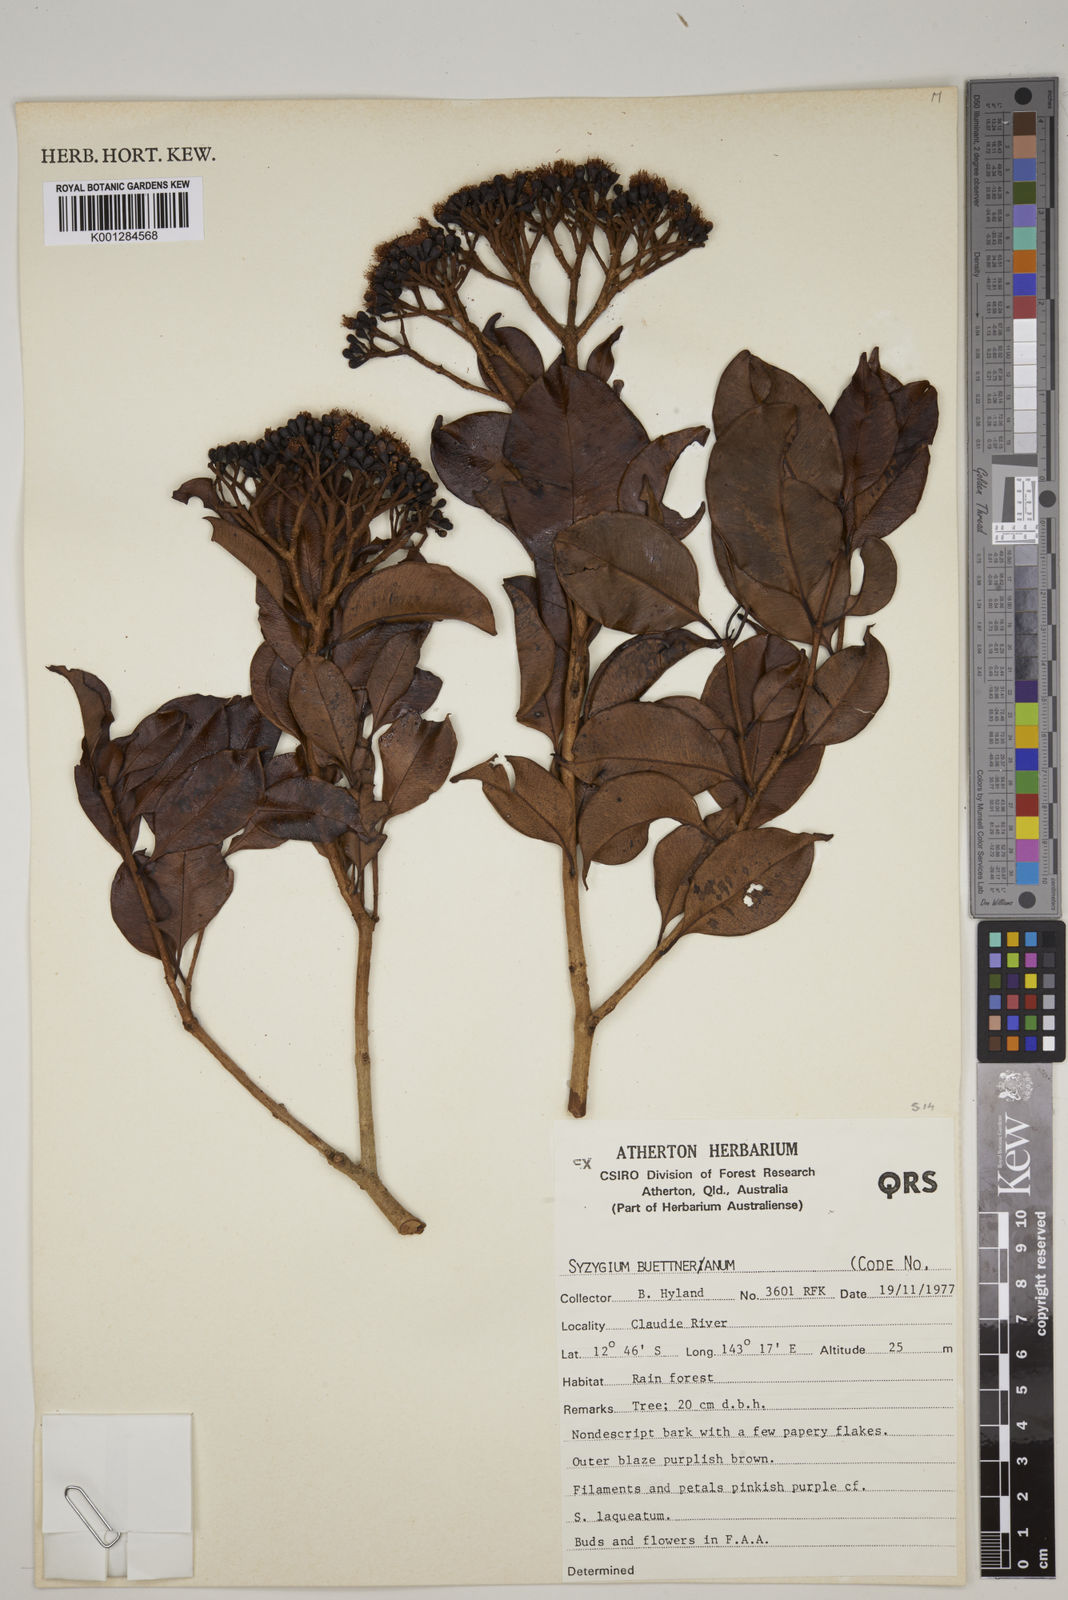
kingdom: Plantae
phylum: Tracheophyta
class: Magnoliopsida
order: Myrtales
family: Myrtaceae
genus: Syzygium
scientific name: Syzygium buettnerianum
